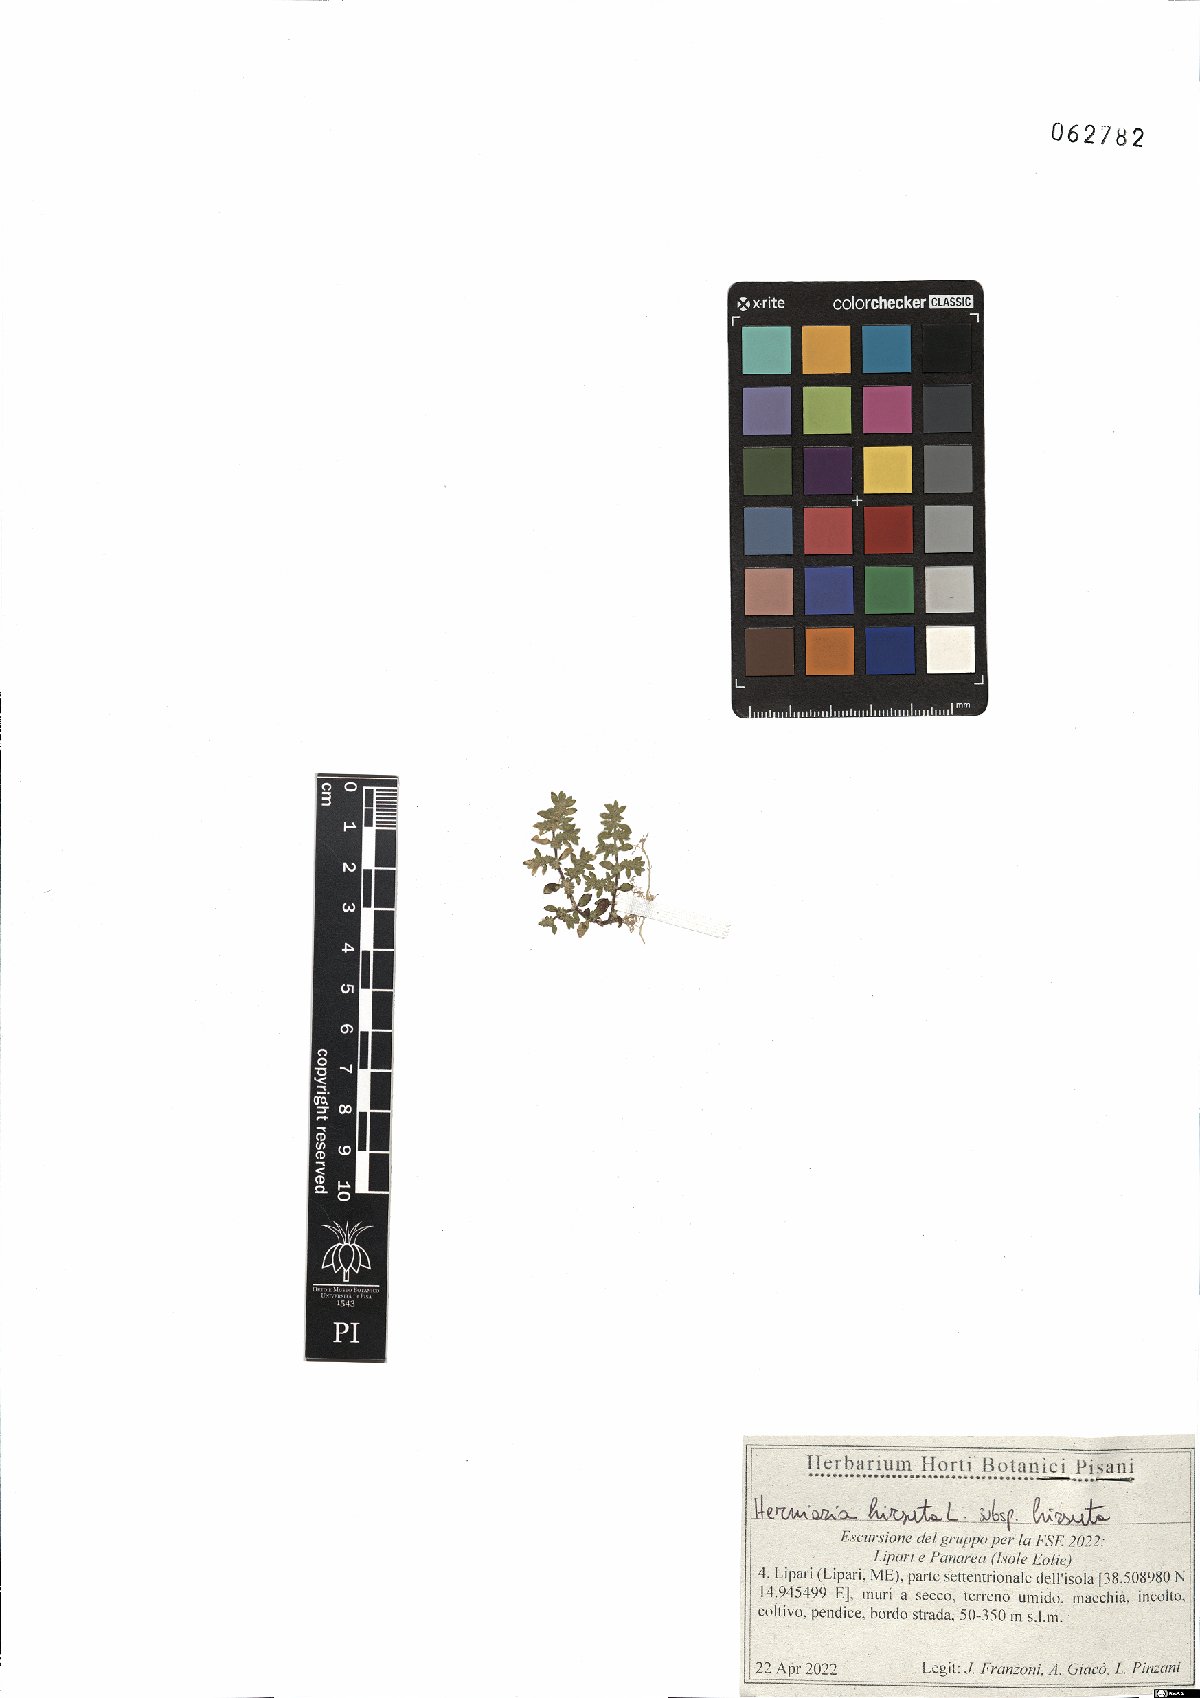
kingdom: Plantae
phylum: Tracheophyta
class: Magnoliopsida
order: Caryophyllales
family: Caryophyllaceae
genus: Herniaria
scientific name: Herniaria hirsuta
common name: Hairy rupturewort
